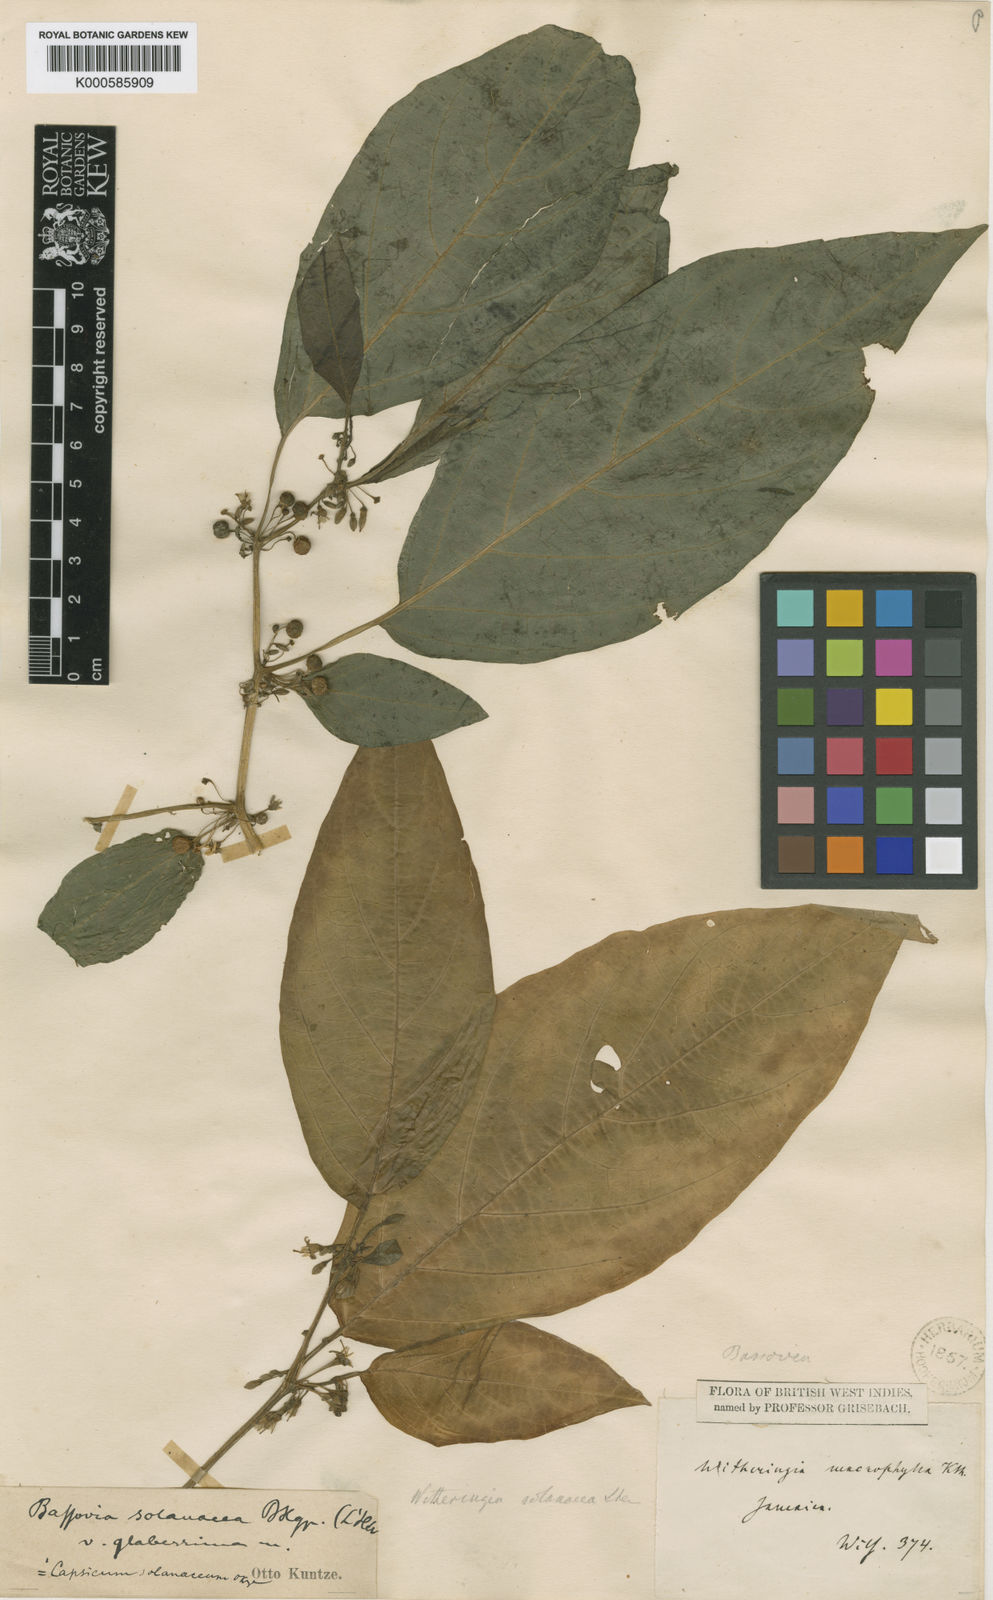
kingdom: Plantae
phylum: Tracheophyta
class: Magnoliopsida
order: Solanales
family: Solanaceae
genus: Witheringia
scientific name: Witheringia
